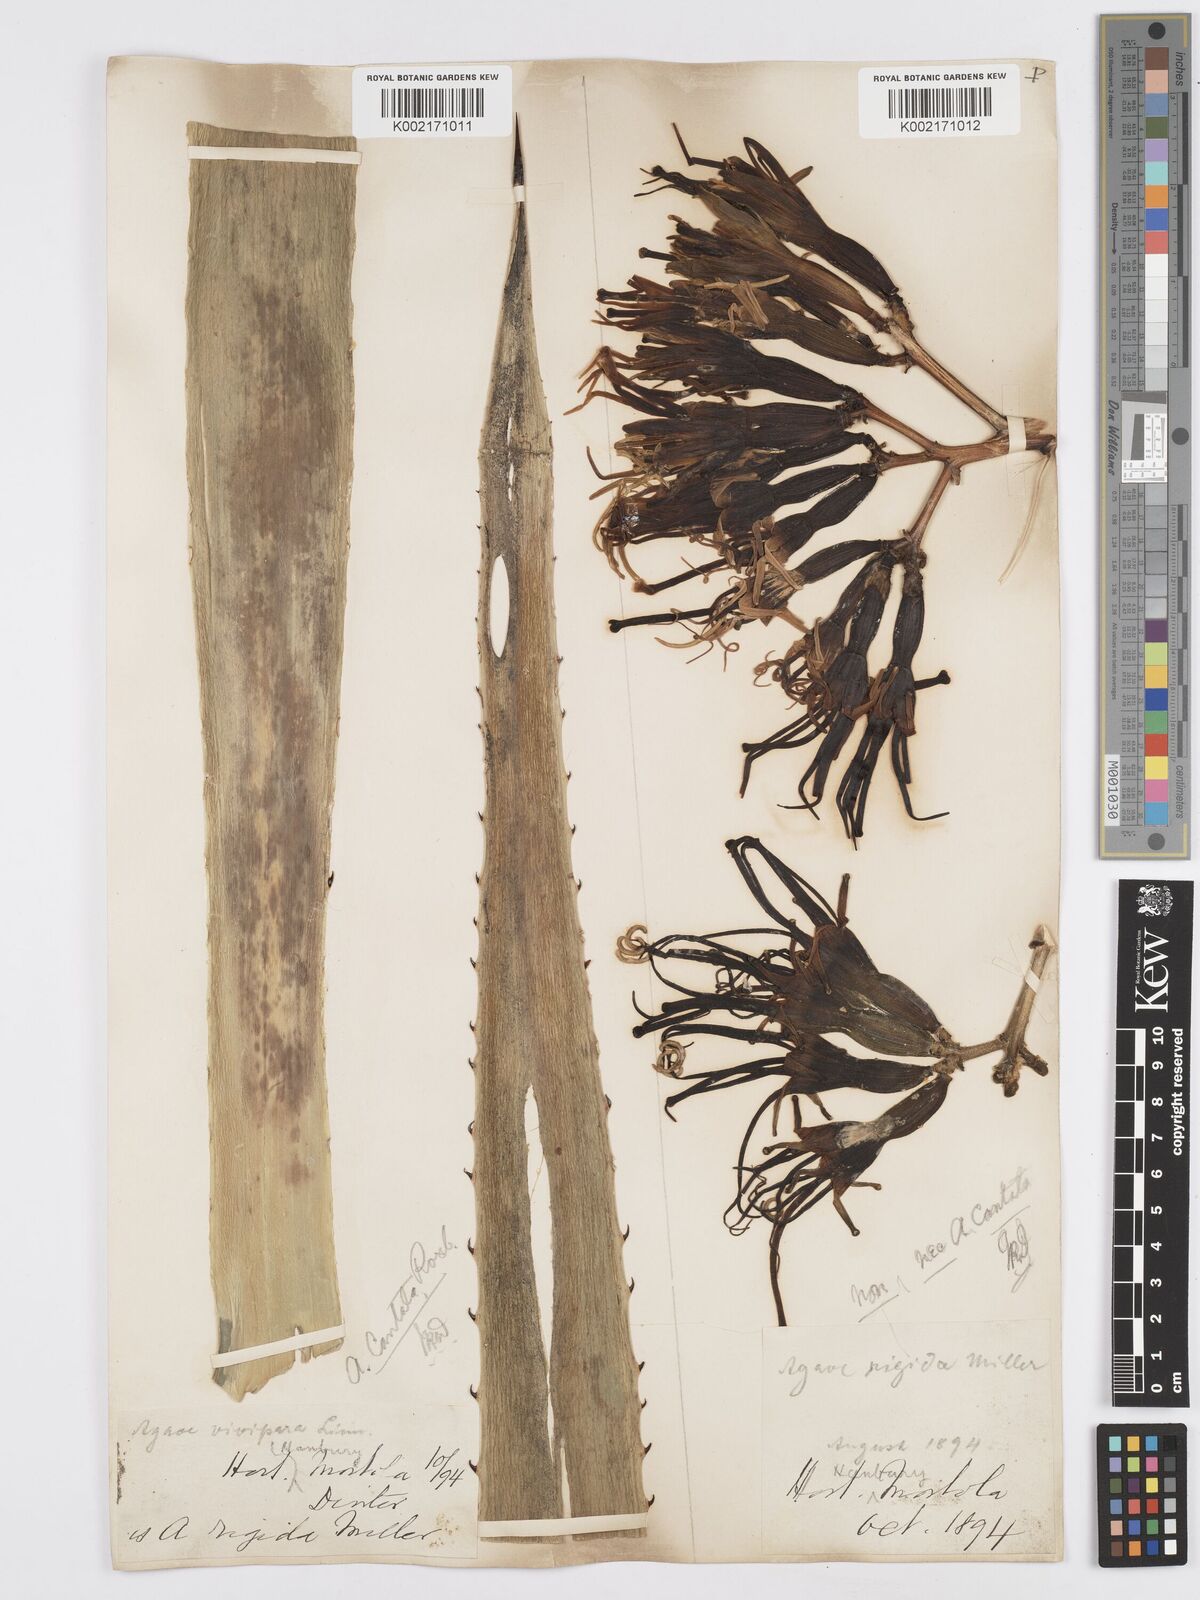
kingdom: Plantae
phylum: Tracheophyta
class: Liliopsida
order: Asparagales
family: Asparagaceae
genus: Agave
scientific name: Agave americana
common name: Centuryplant
